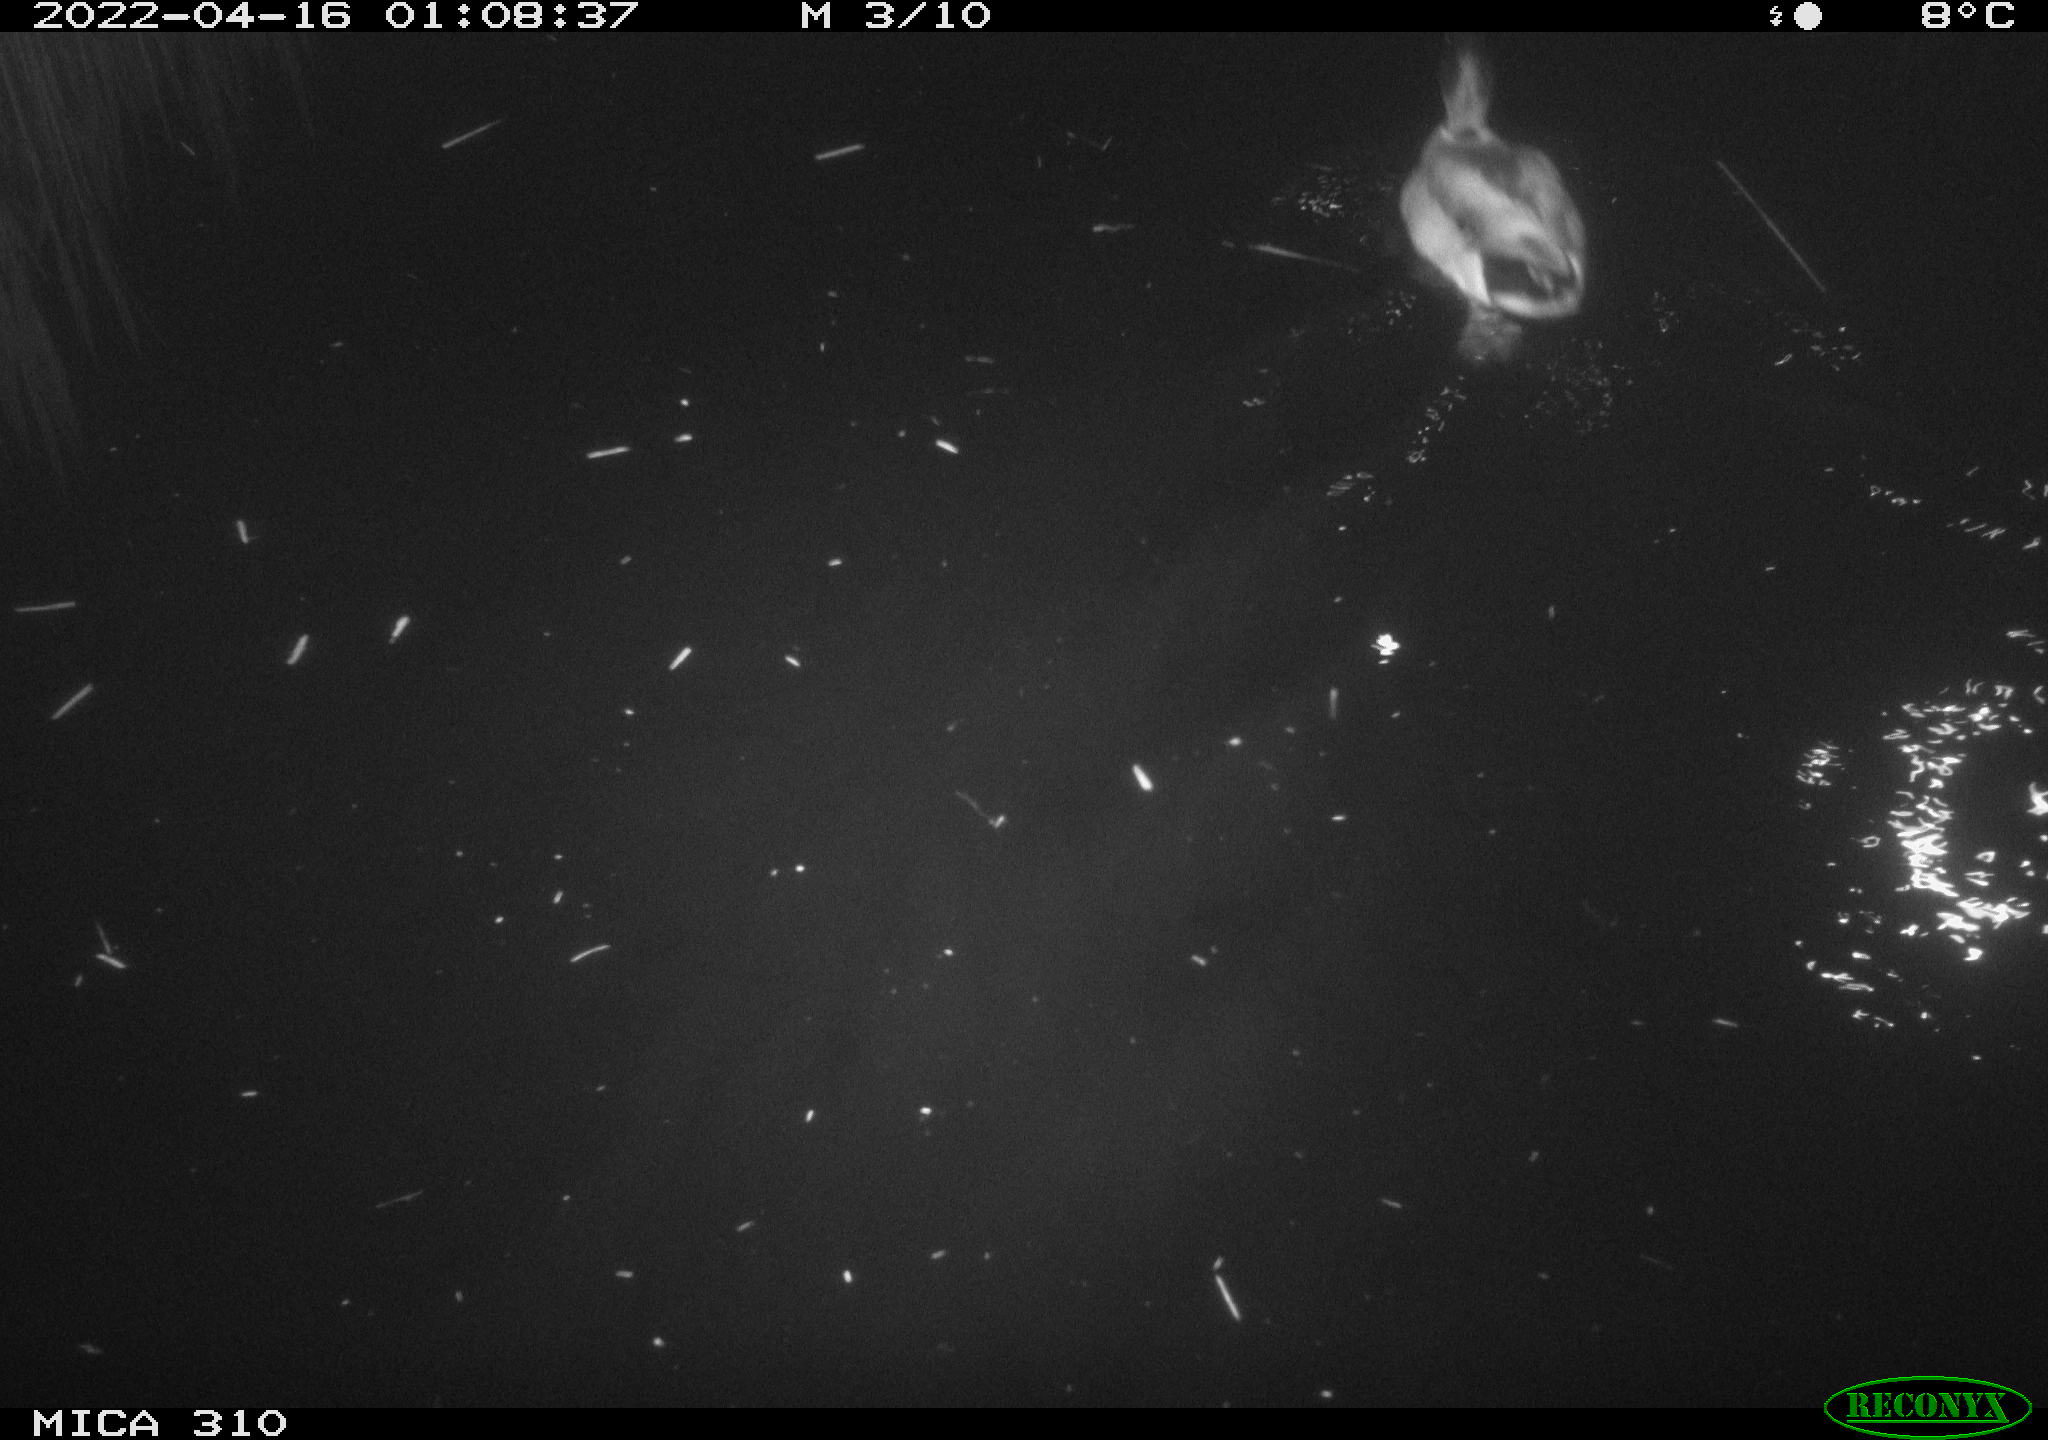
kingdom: Animalia
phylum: Chordata
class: Aves
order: Anseriformes
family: Anatidae
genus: Anas
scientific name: Anas platyrhynchos
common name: Mallard
